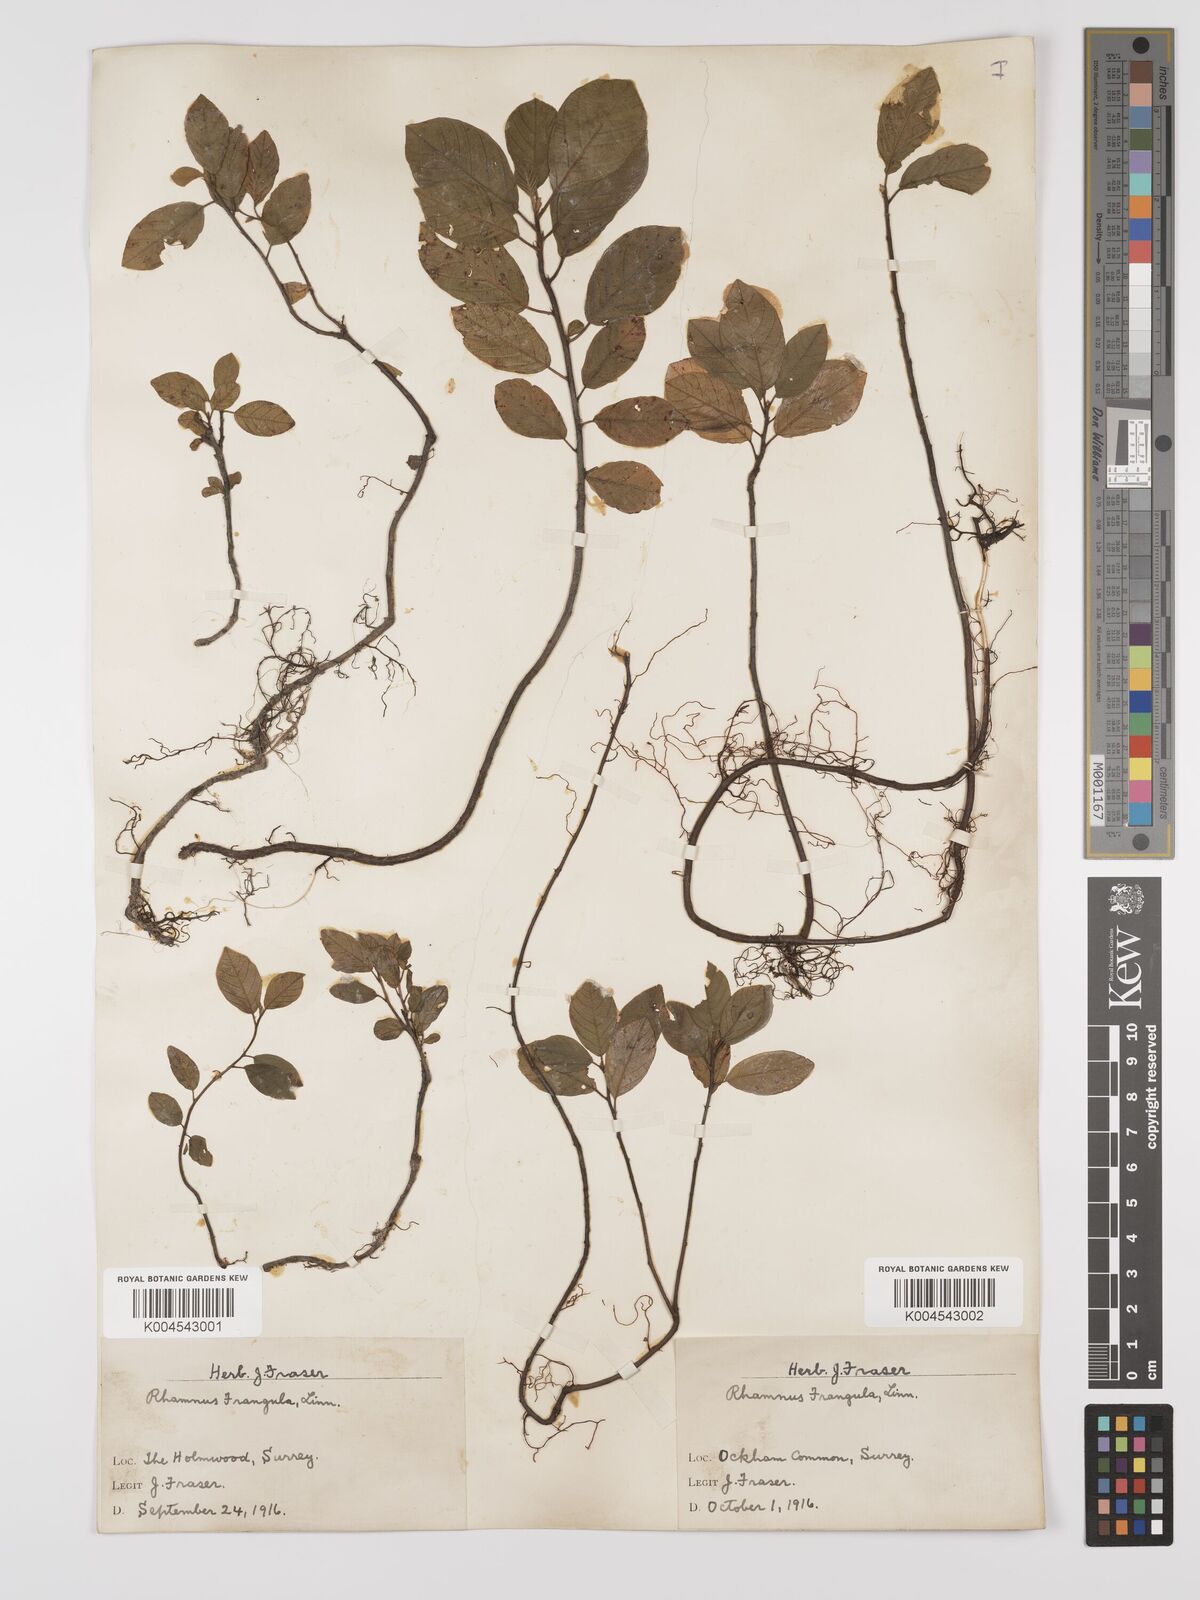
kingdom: Plantae
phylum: Tracheophyta
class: Magnoliopsida
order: Rosales
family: Rhamnaceae
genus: Frangula
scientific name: Frangula alnus
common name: Alder buckthorn
